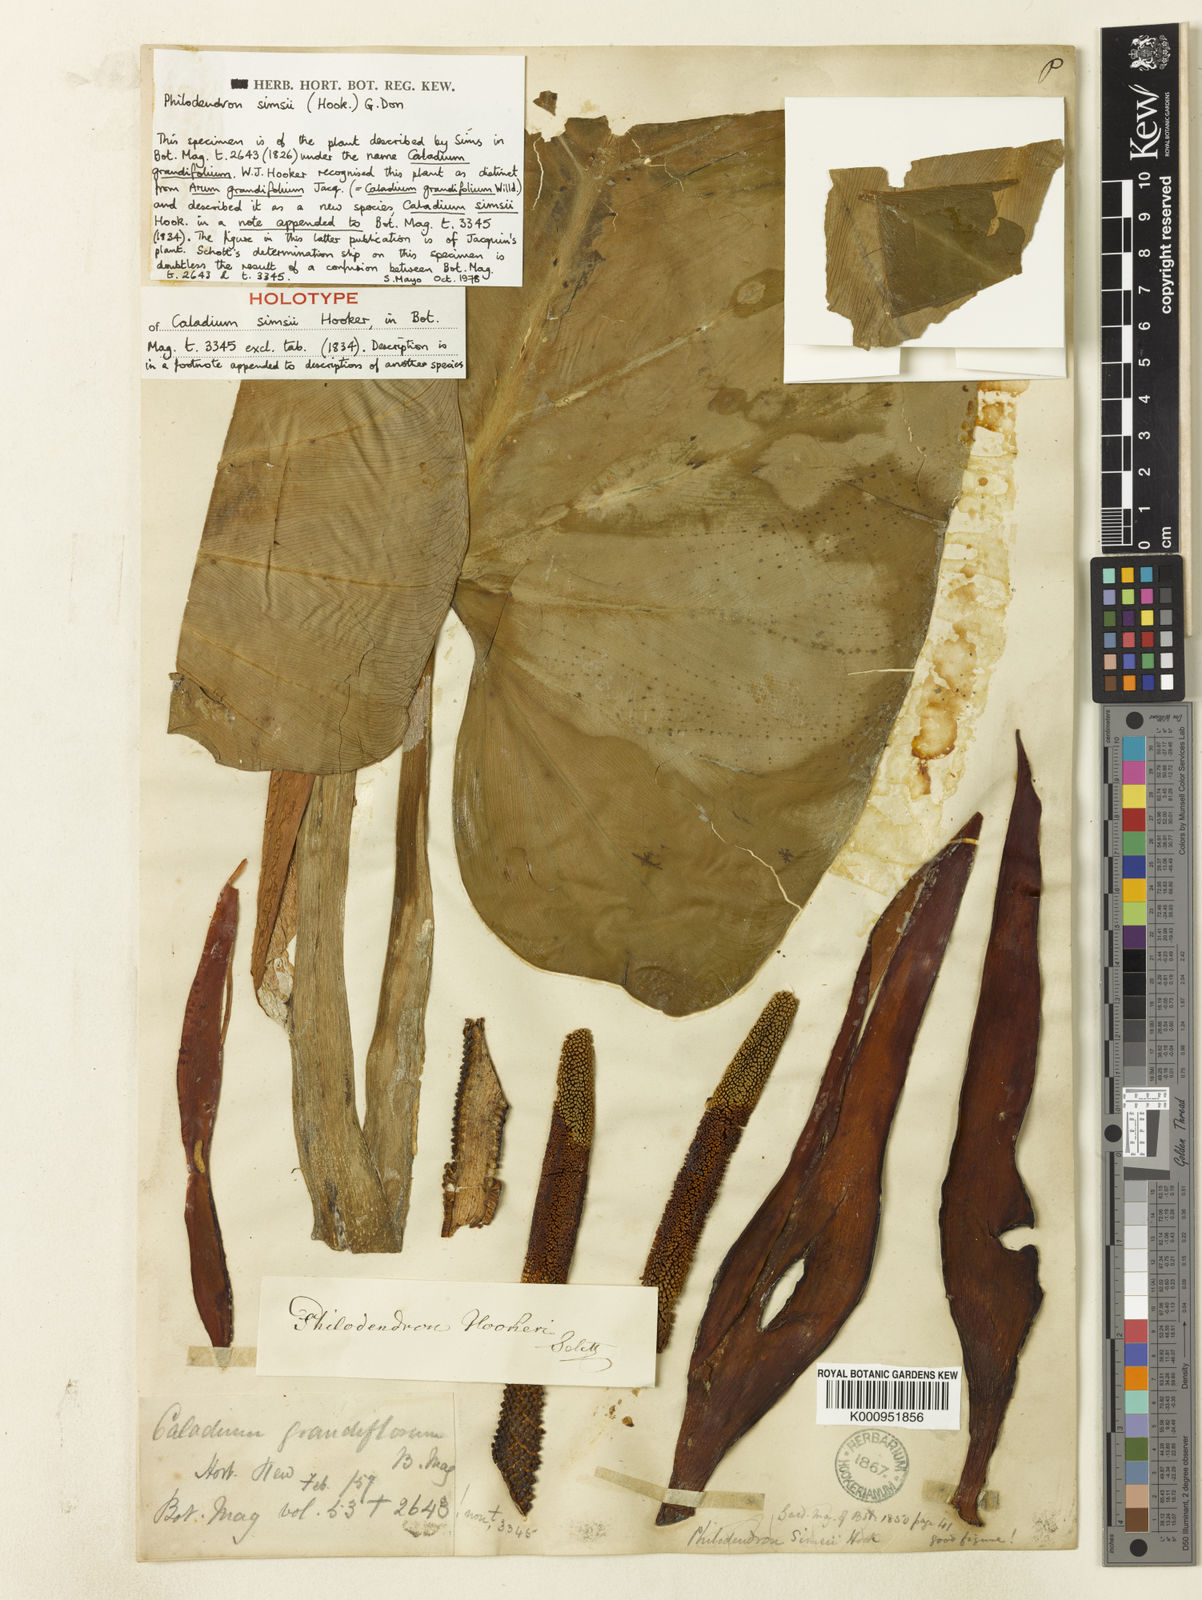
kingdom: Plantae
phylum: Tracheophyta
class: Liliopsida
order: Alismatales
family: Araceae
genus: Philodendron
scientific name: Philodendron simsii
